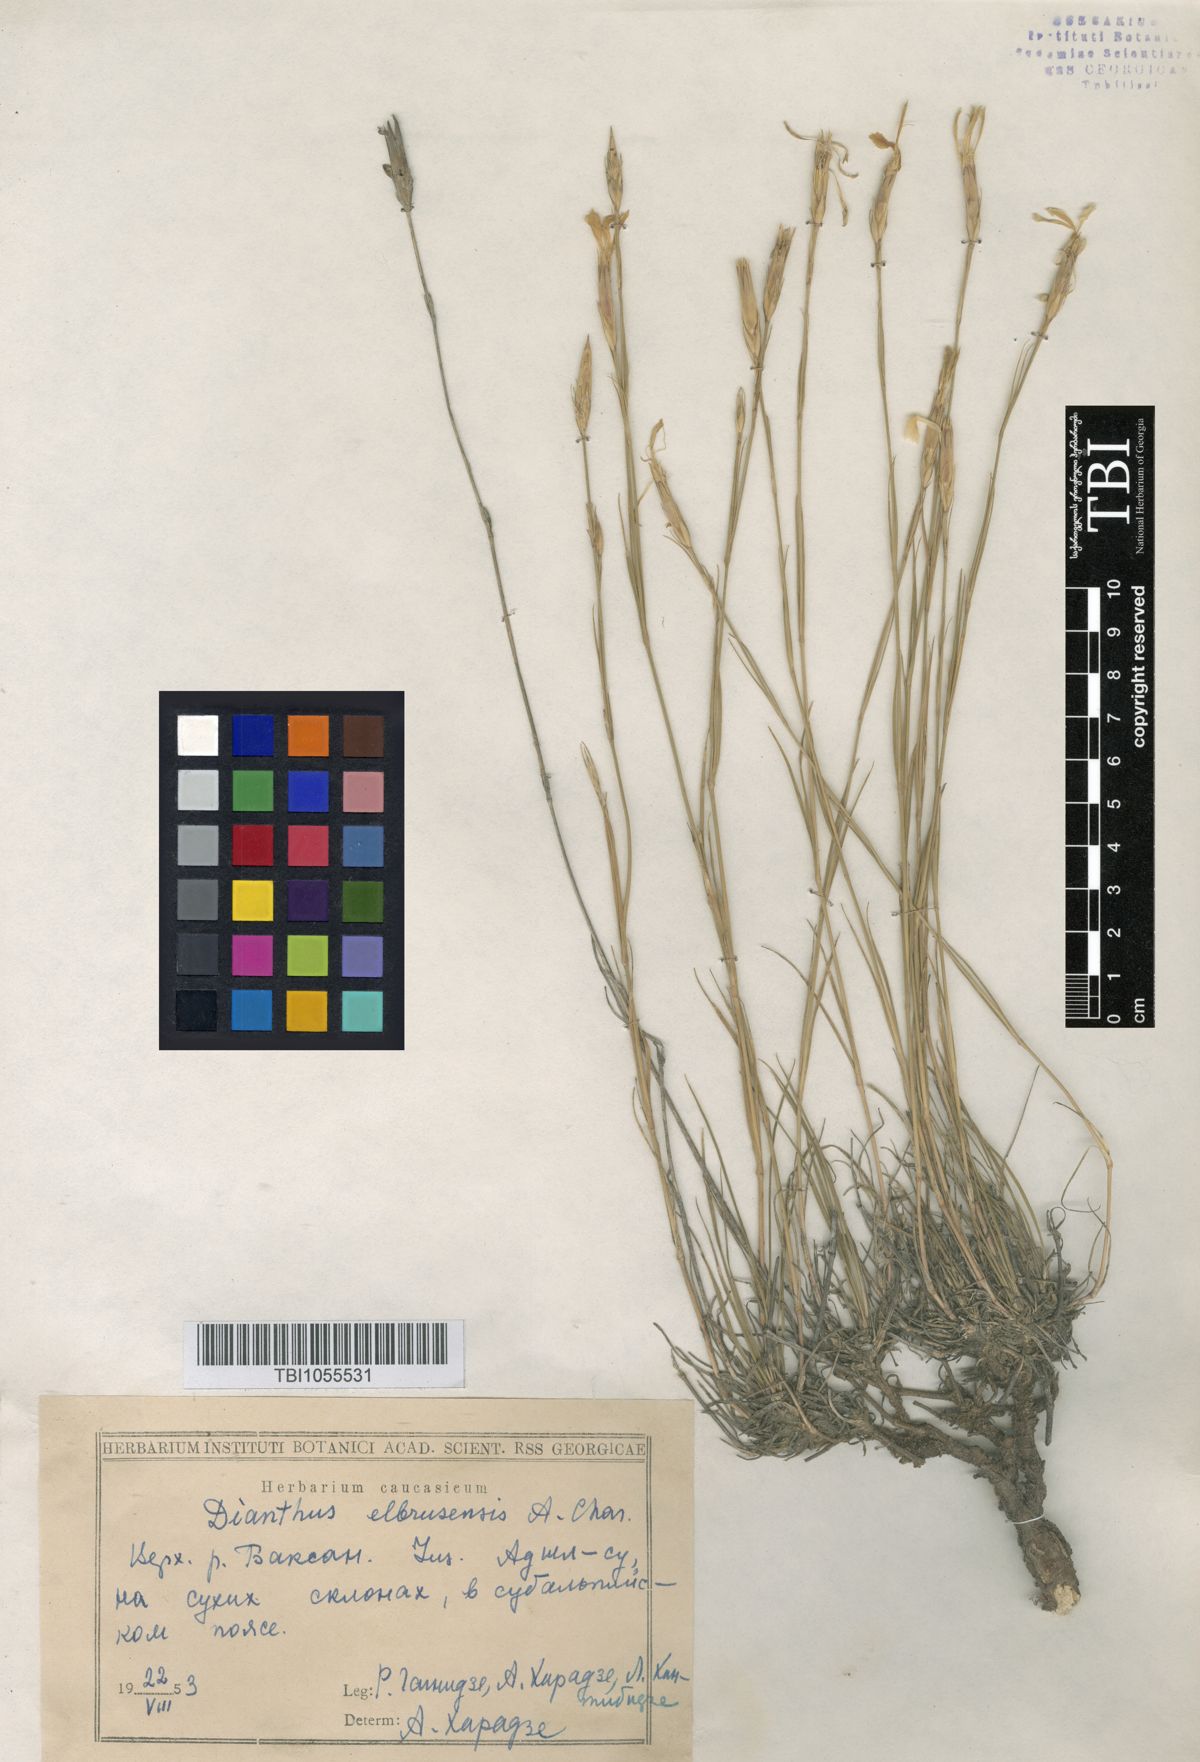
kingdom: Plantae
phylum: Tracheophyta
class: Magnoliopsida
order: Caryophyllales
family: Caryophyllaceae
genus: Dianthus
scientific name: Dianthus
